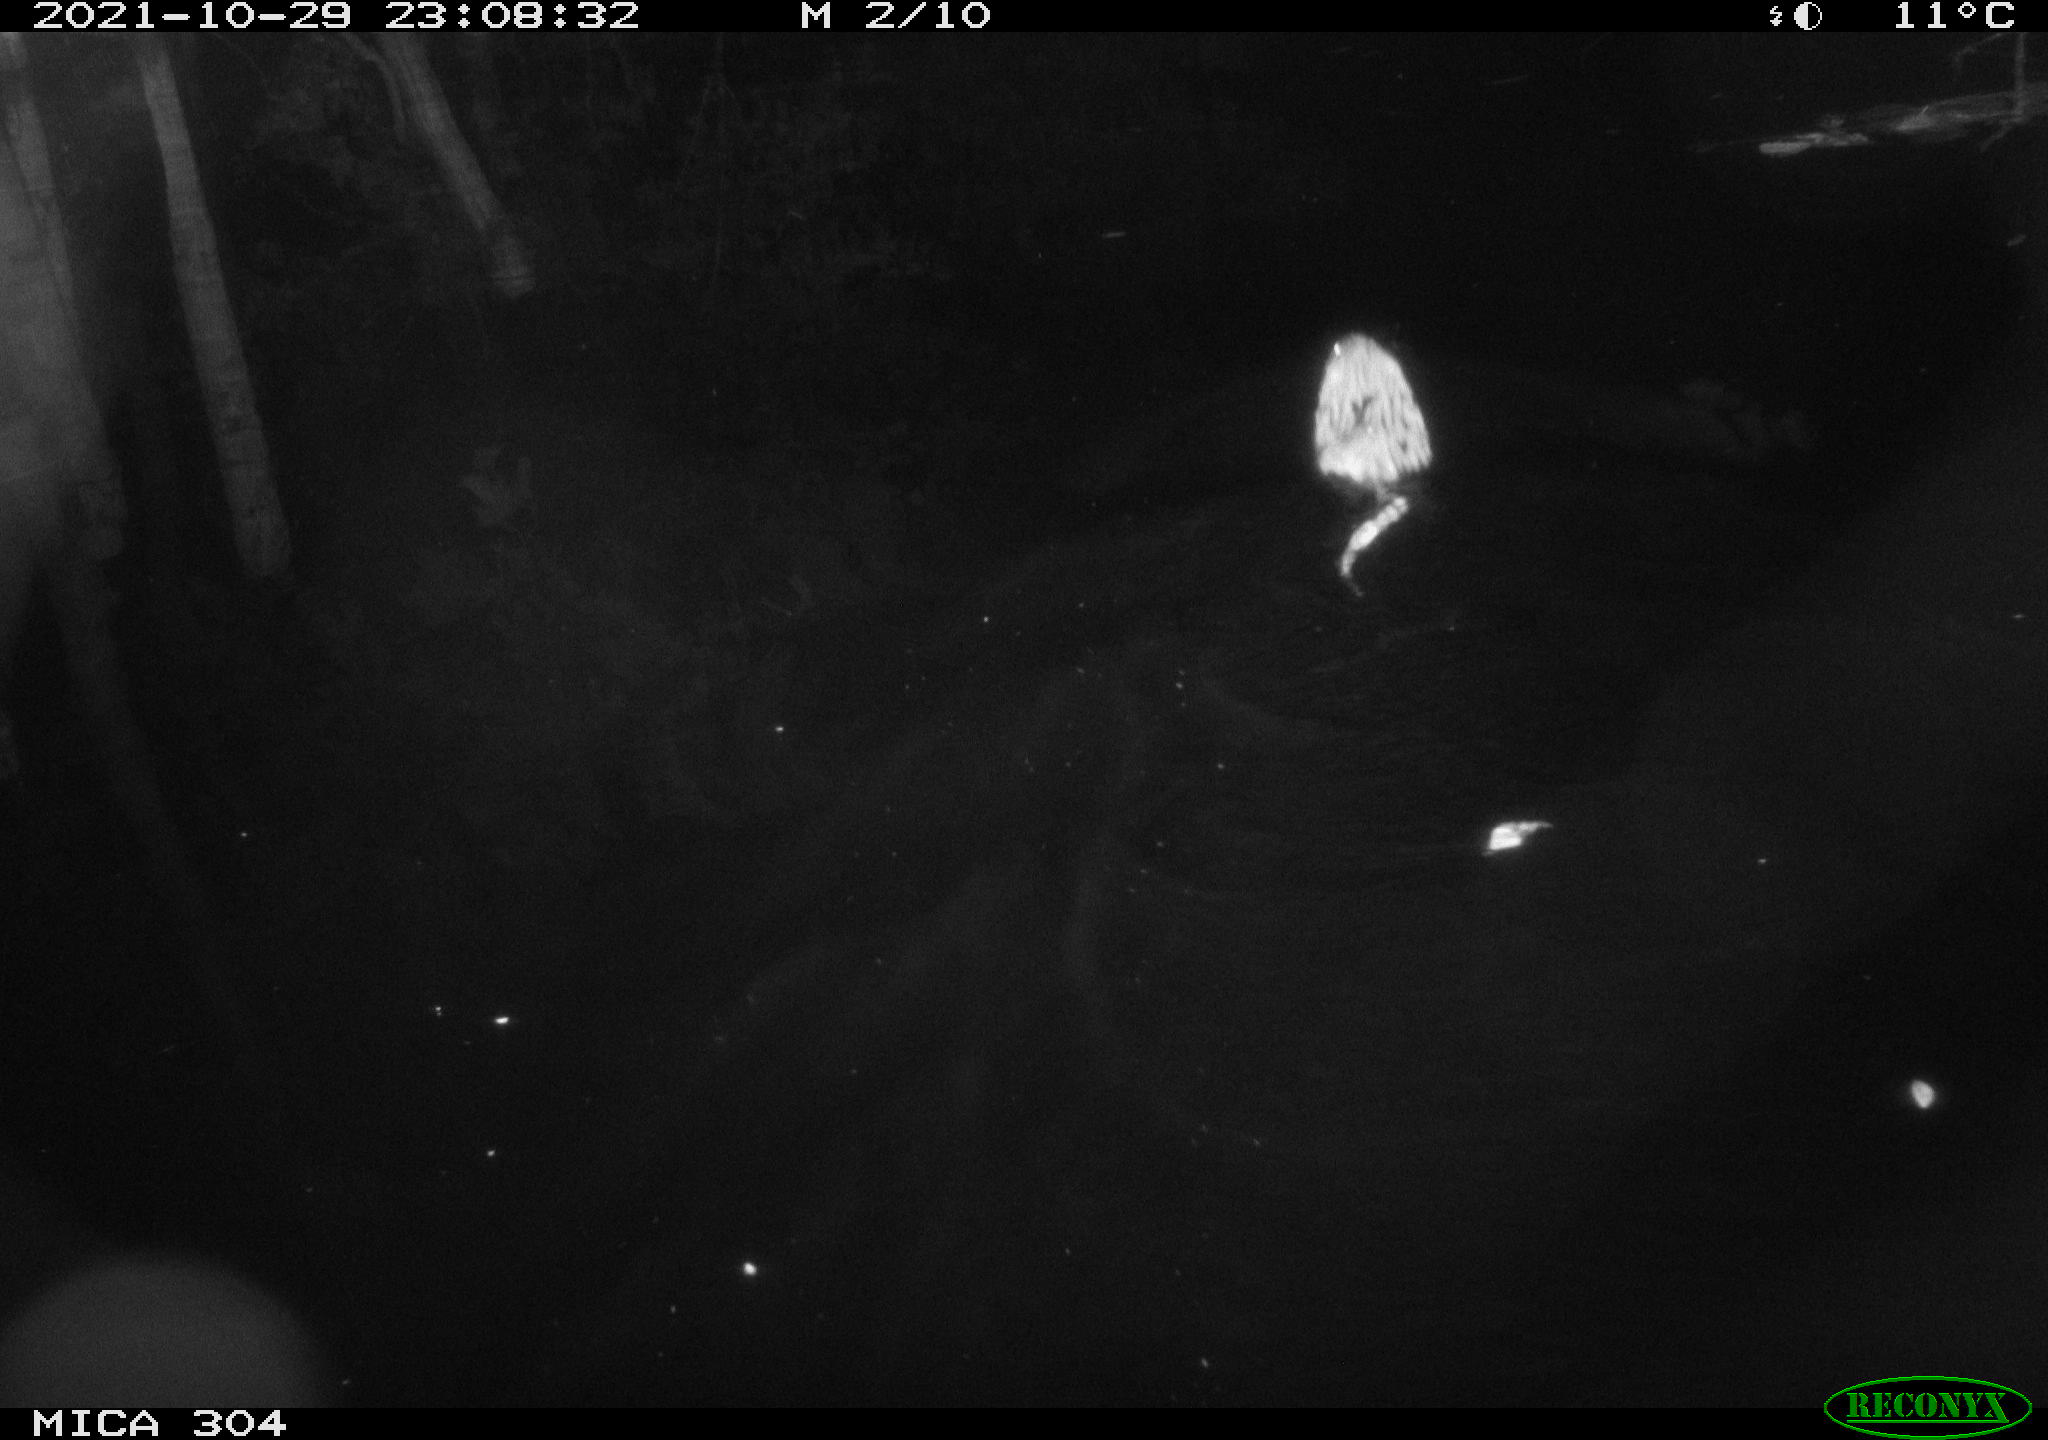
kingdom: Animalia
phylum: Chordata
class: Mammalia
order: Rodentia
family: Cricetidae
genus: Ondatra
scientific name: Ondatra zibethicus
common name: Muskrat
